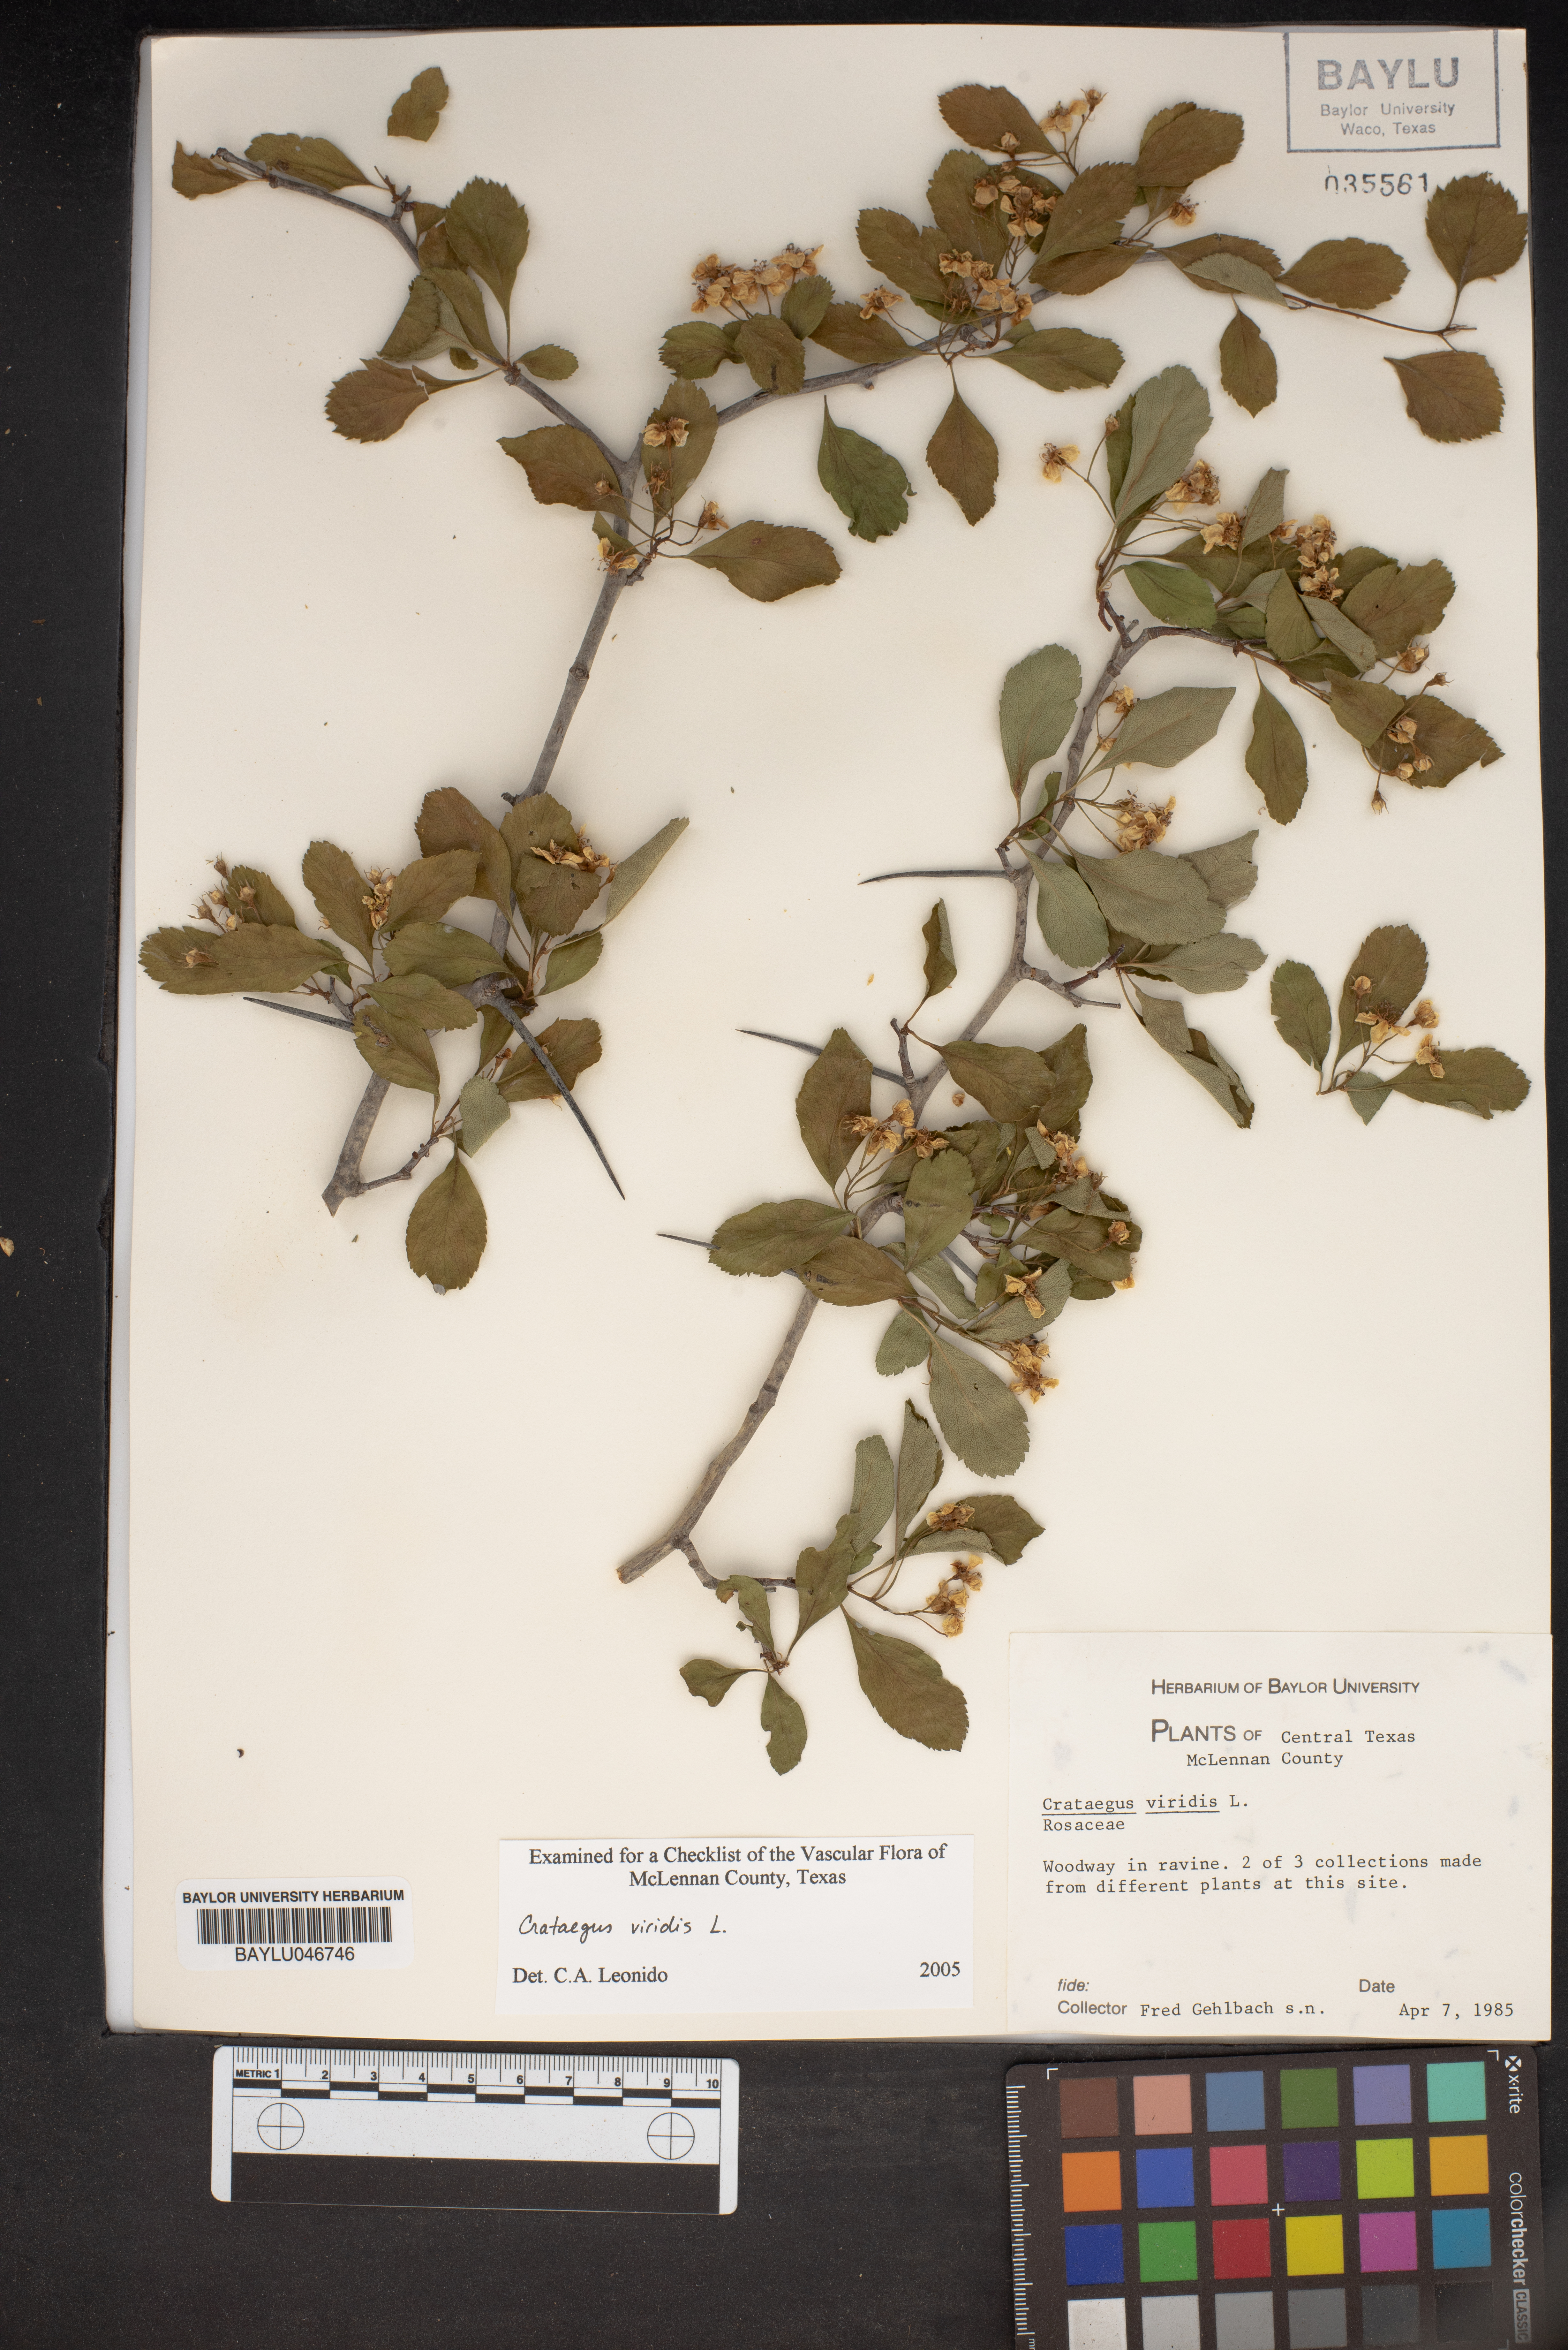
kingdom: Plantae
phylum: Tracheophyta
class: Magnoliopsida
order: Rosales
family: Rosaceae
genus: Crataegus
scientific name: Crataegus viridis
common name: Southernthorn
